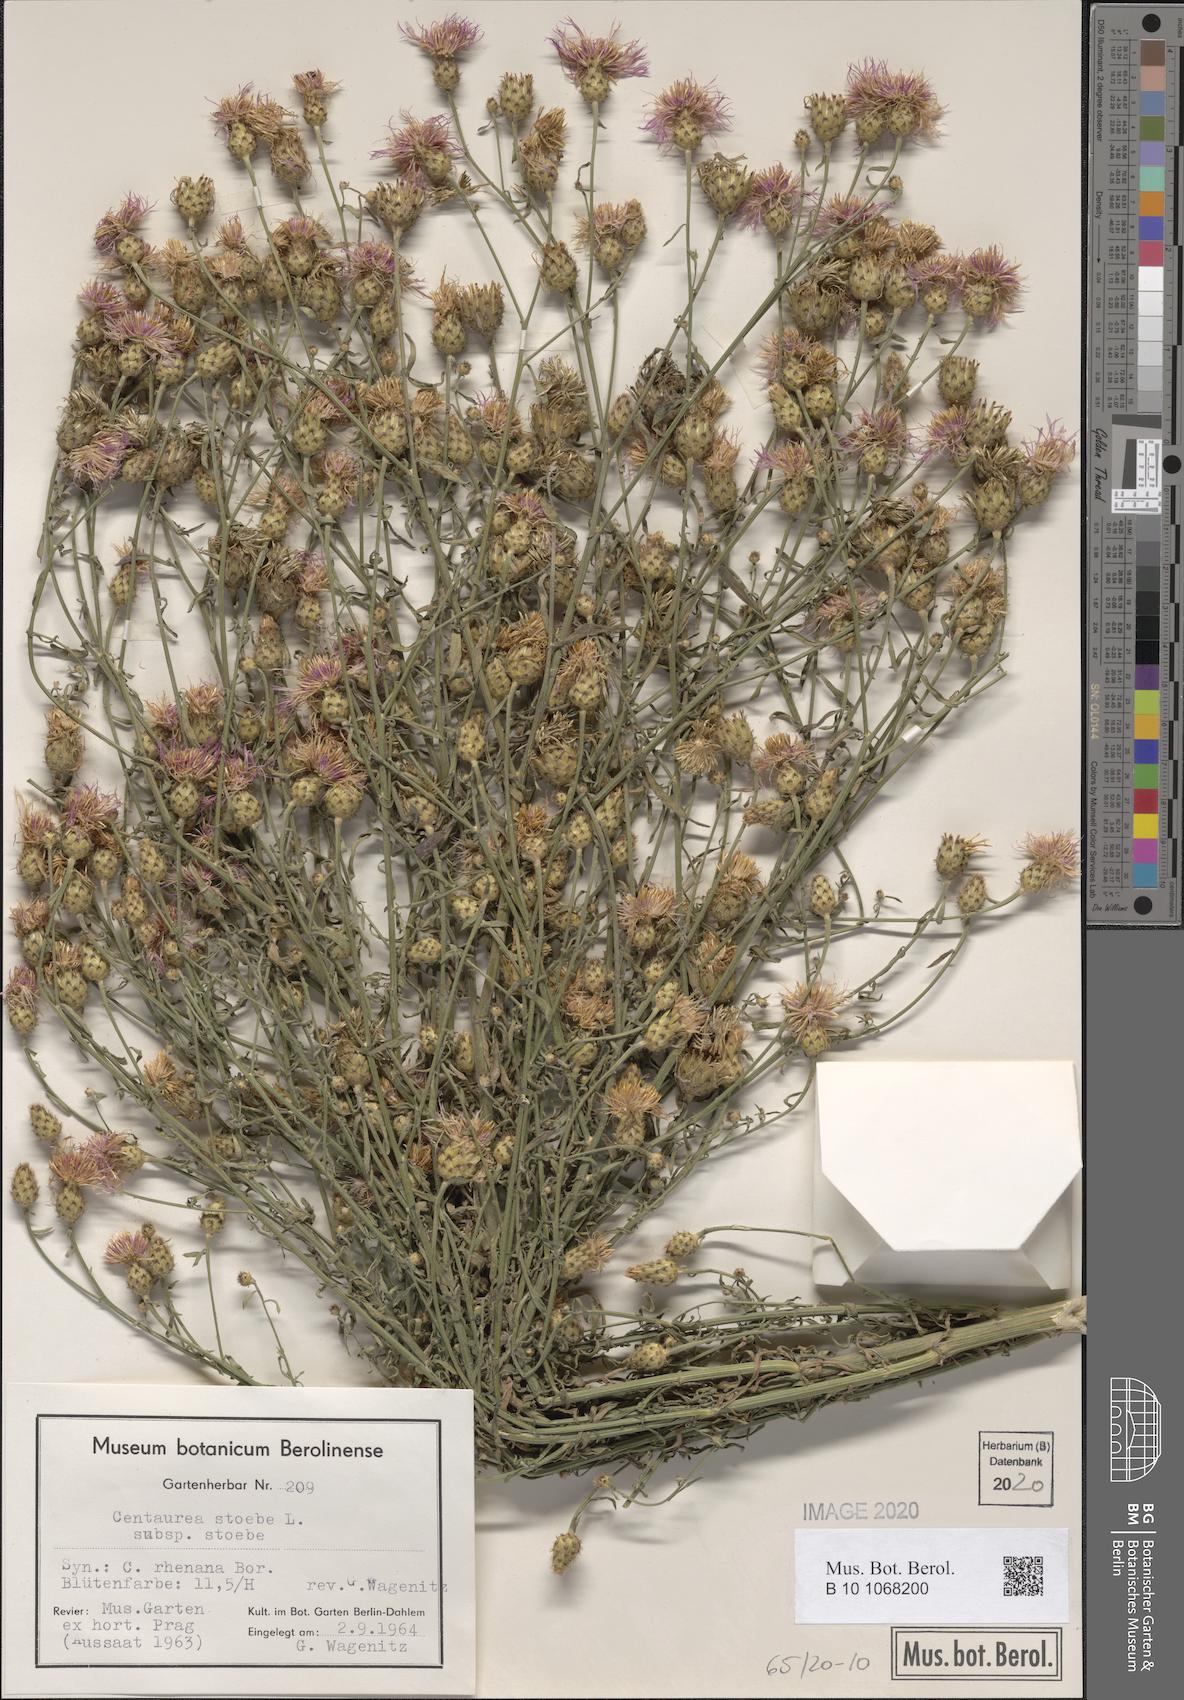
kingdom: Plantae
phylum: Tracheophyta
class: Magnoliopsida
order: Asterales
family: Asteraceae
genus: Centaurea
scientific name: Centaurea stoebe
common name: Spotted knapweed
